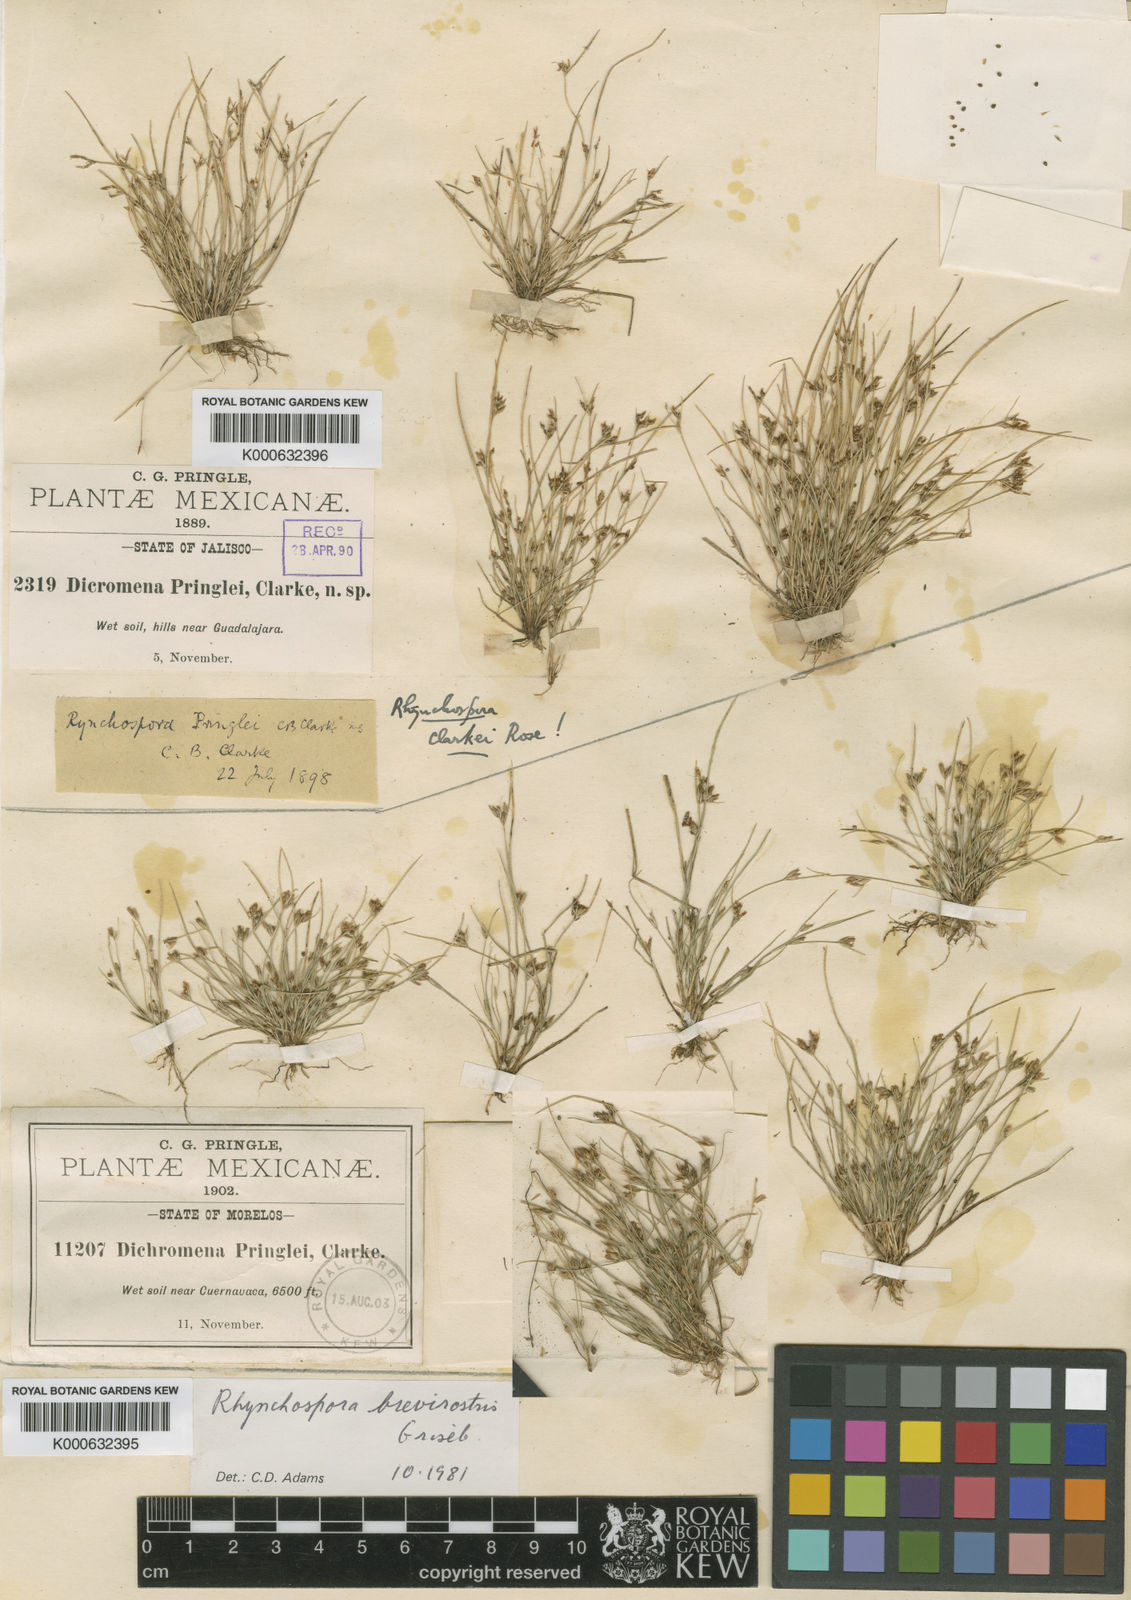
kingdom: Plantae
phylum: Tracheophyta
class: Liliopsida
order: Poales
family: Cyperaceae
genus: Rhynchospora
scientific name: Rhynchospora brevirostris
